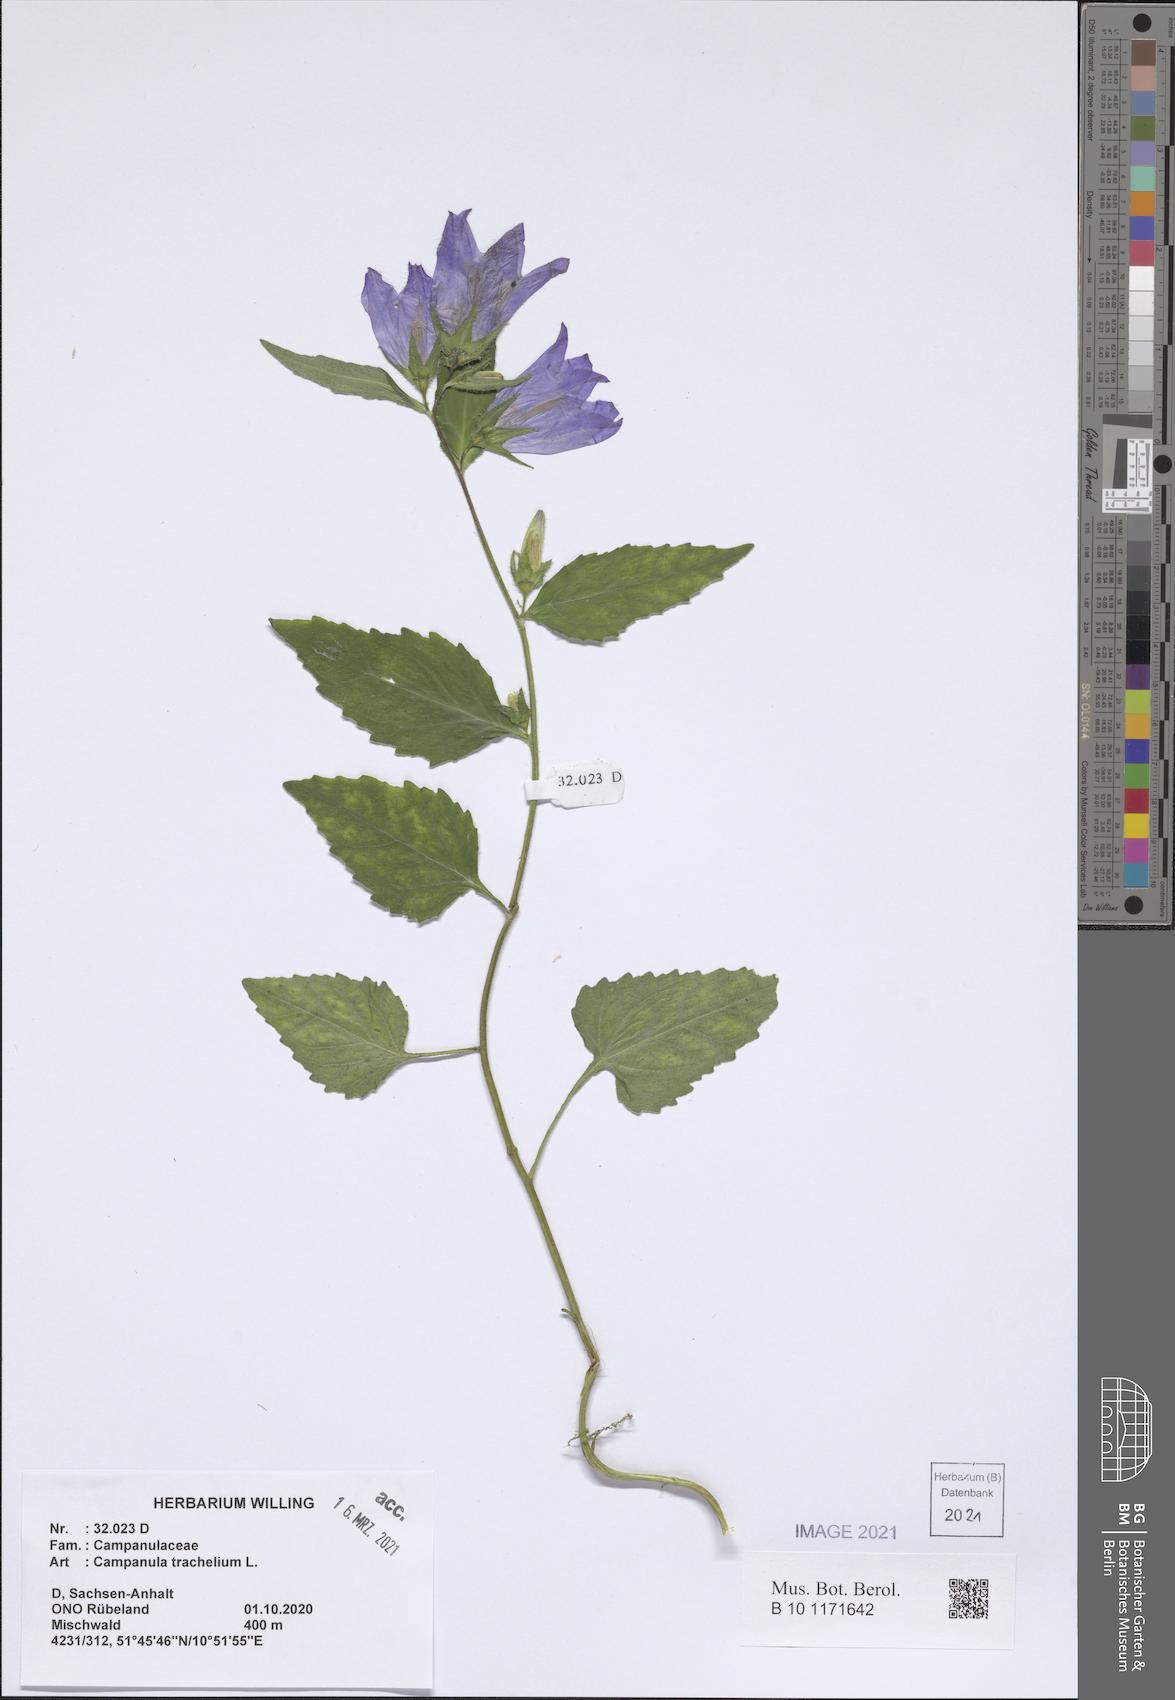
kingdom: Plantae
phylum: Tracheophyta
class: Magnoliopsida
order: Asterales
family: Campanulaceae
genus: Campanula
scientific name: Campanula trachelium
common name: Nettle-leaved bellflower
